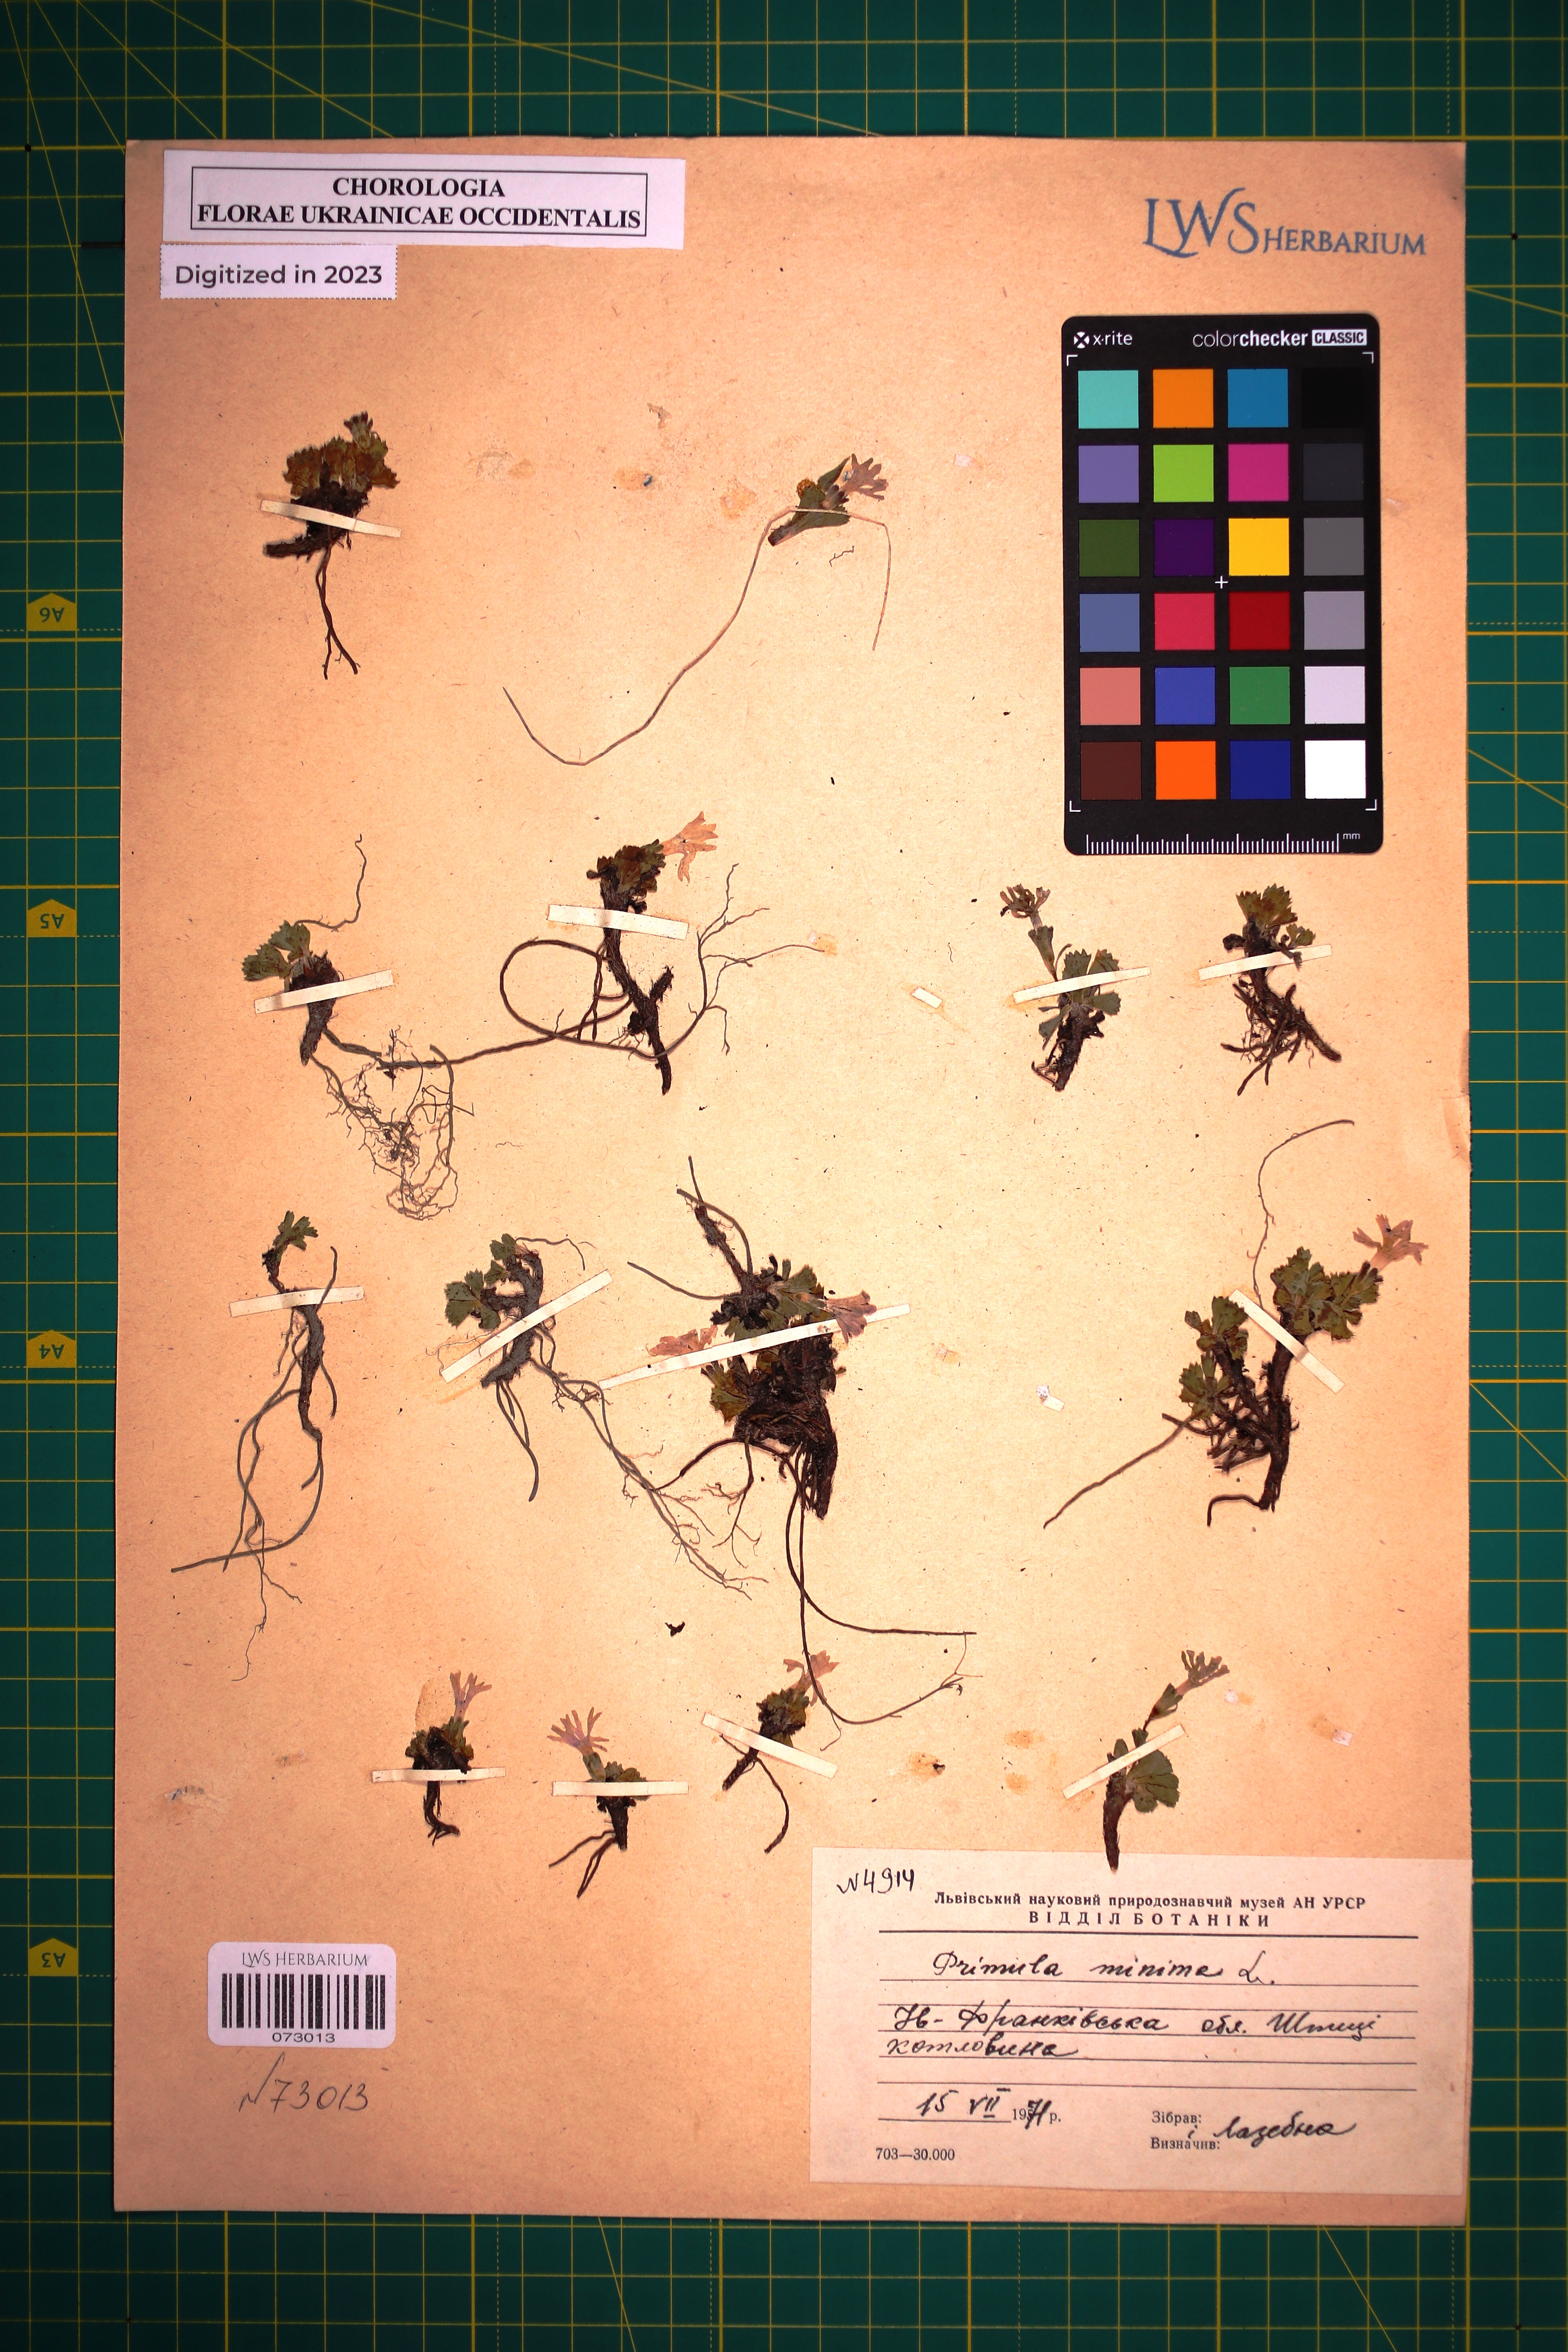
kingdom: Plantae
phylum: Tracheophyta
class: Magnoliopsida
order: Ericales
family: Primulaceae
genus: Primula
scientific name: Primula minima
